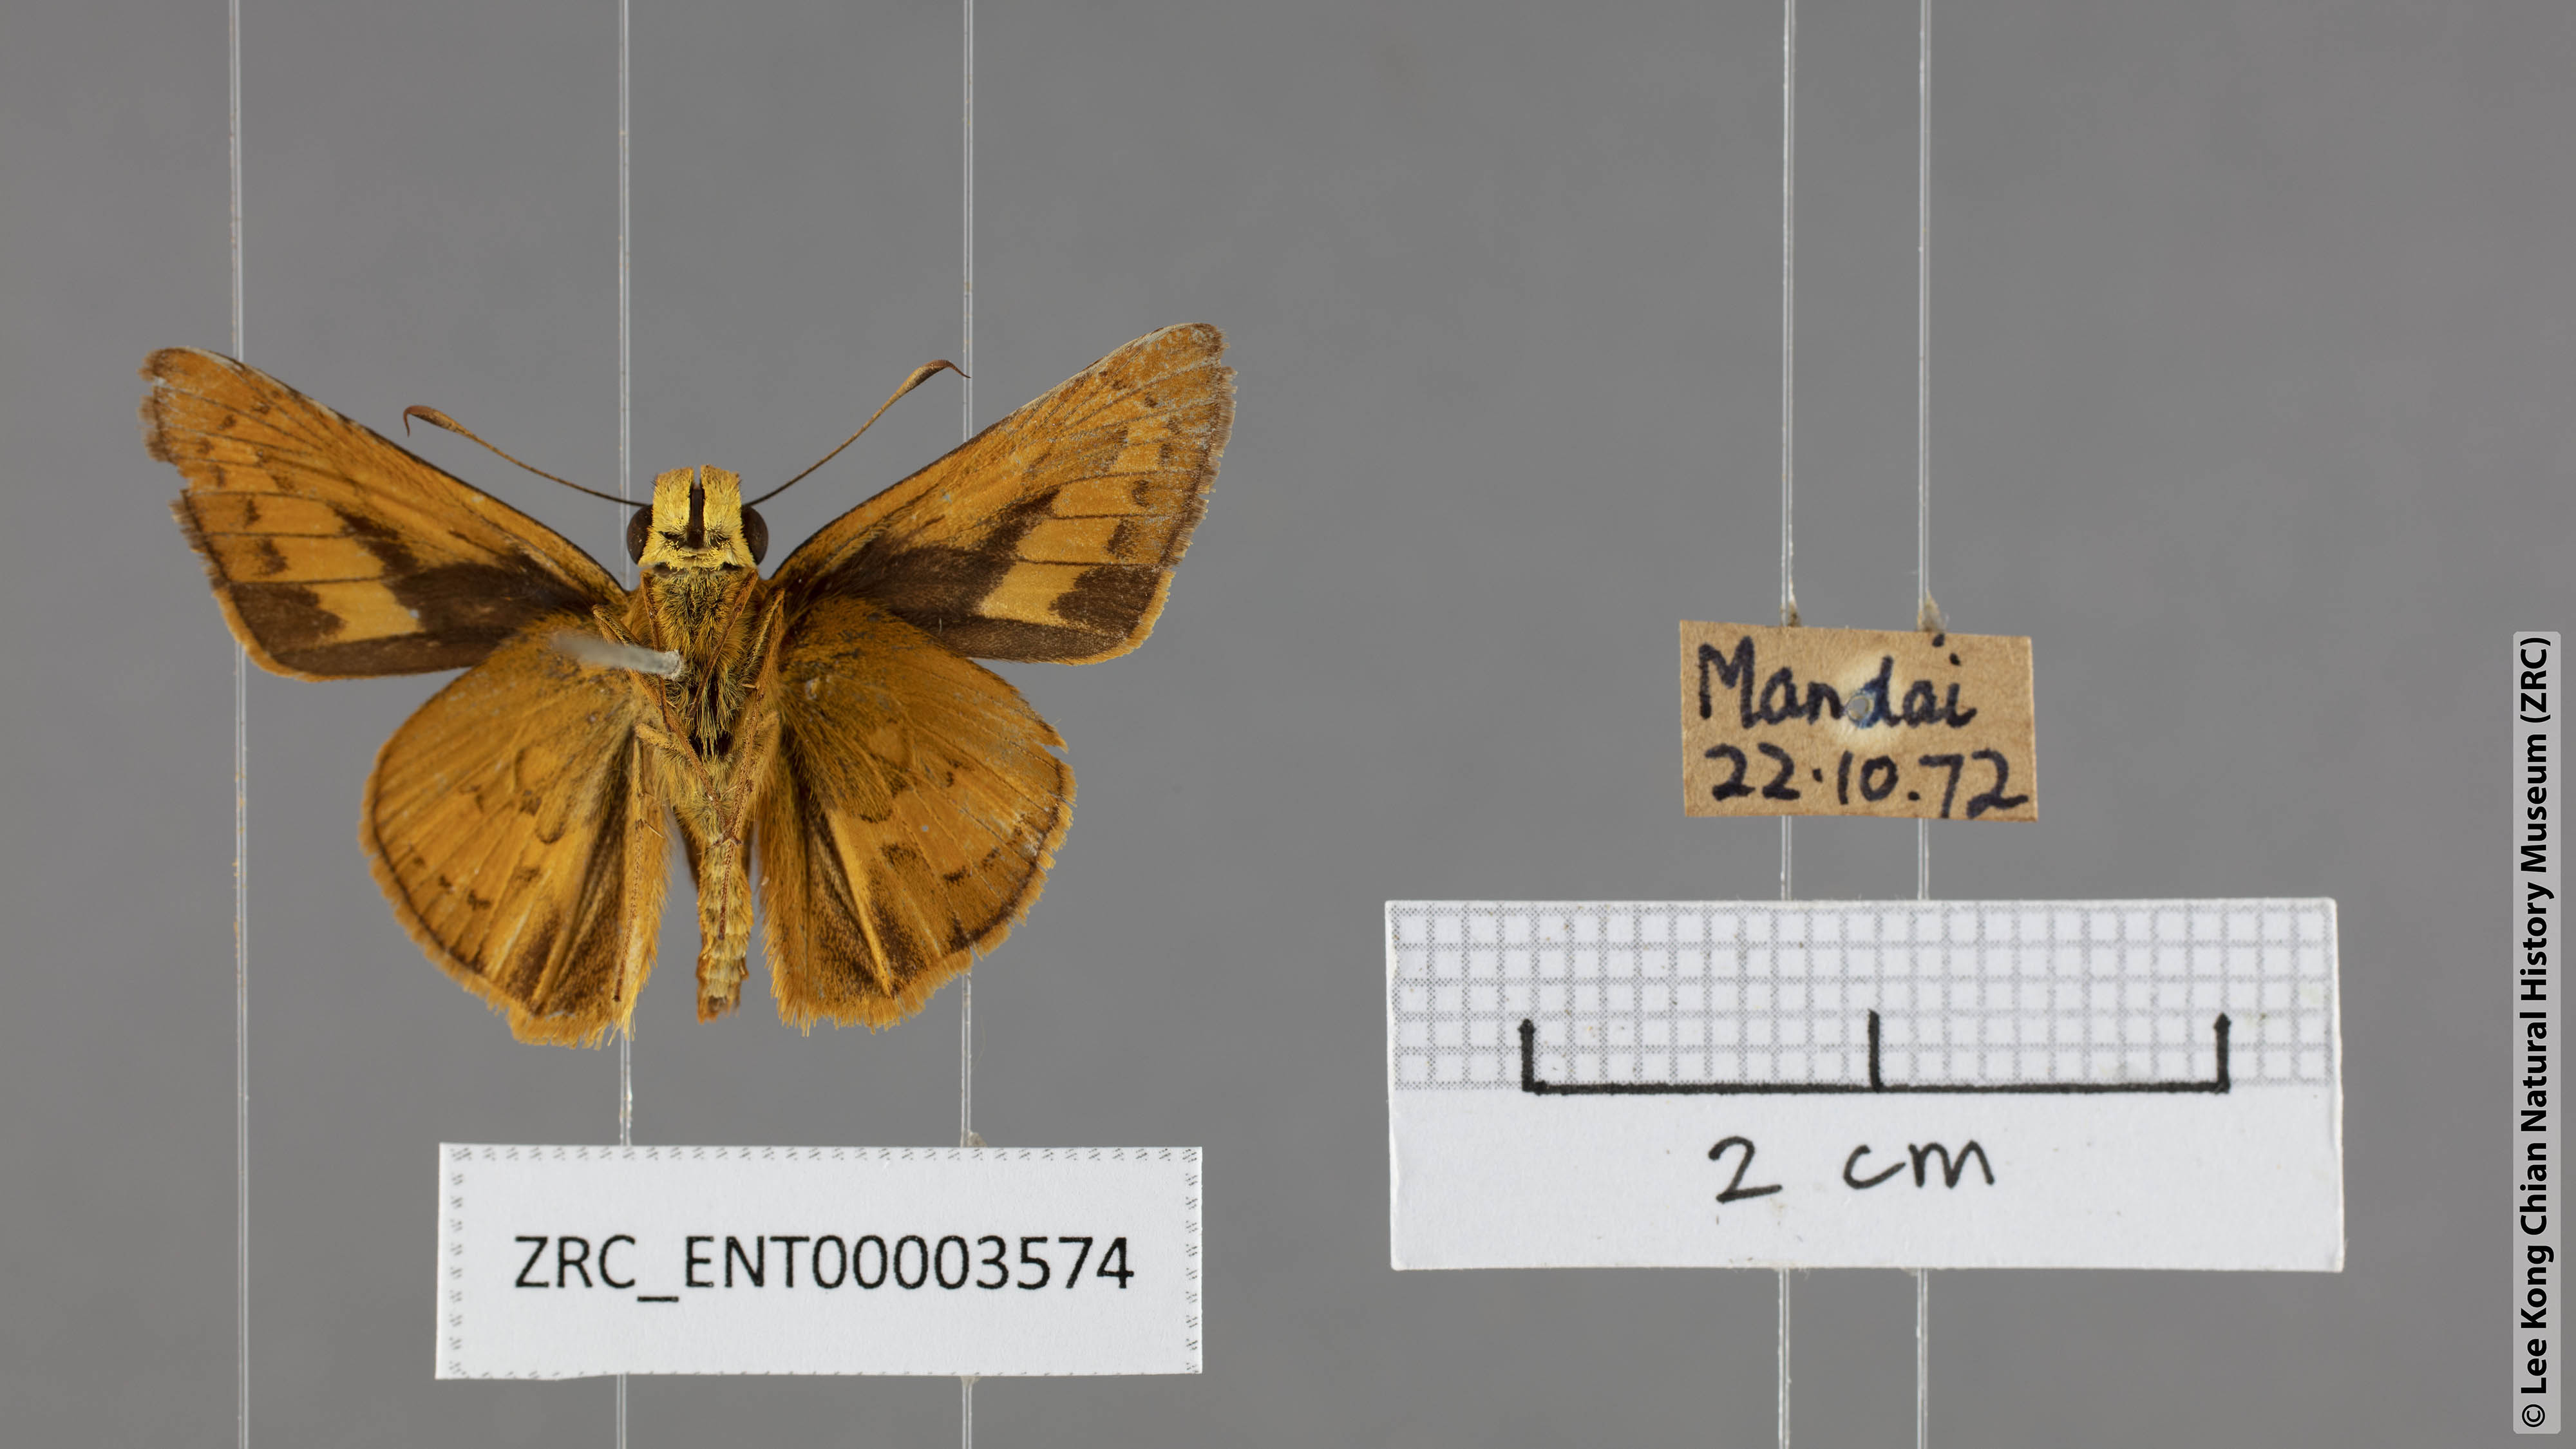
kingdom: Animalia
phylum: Arthropoda
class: Insecta
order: Lepidoptera
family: Hesperiidae
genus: Telicota
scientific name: Telicota augias
